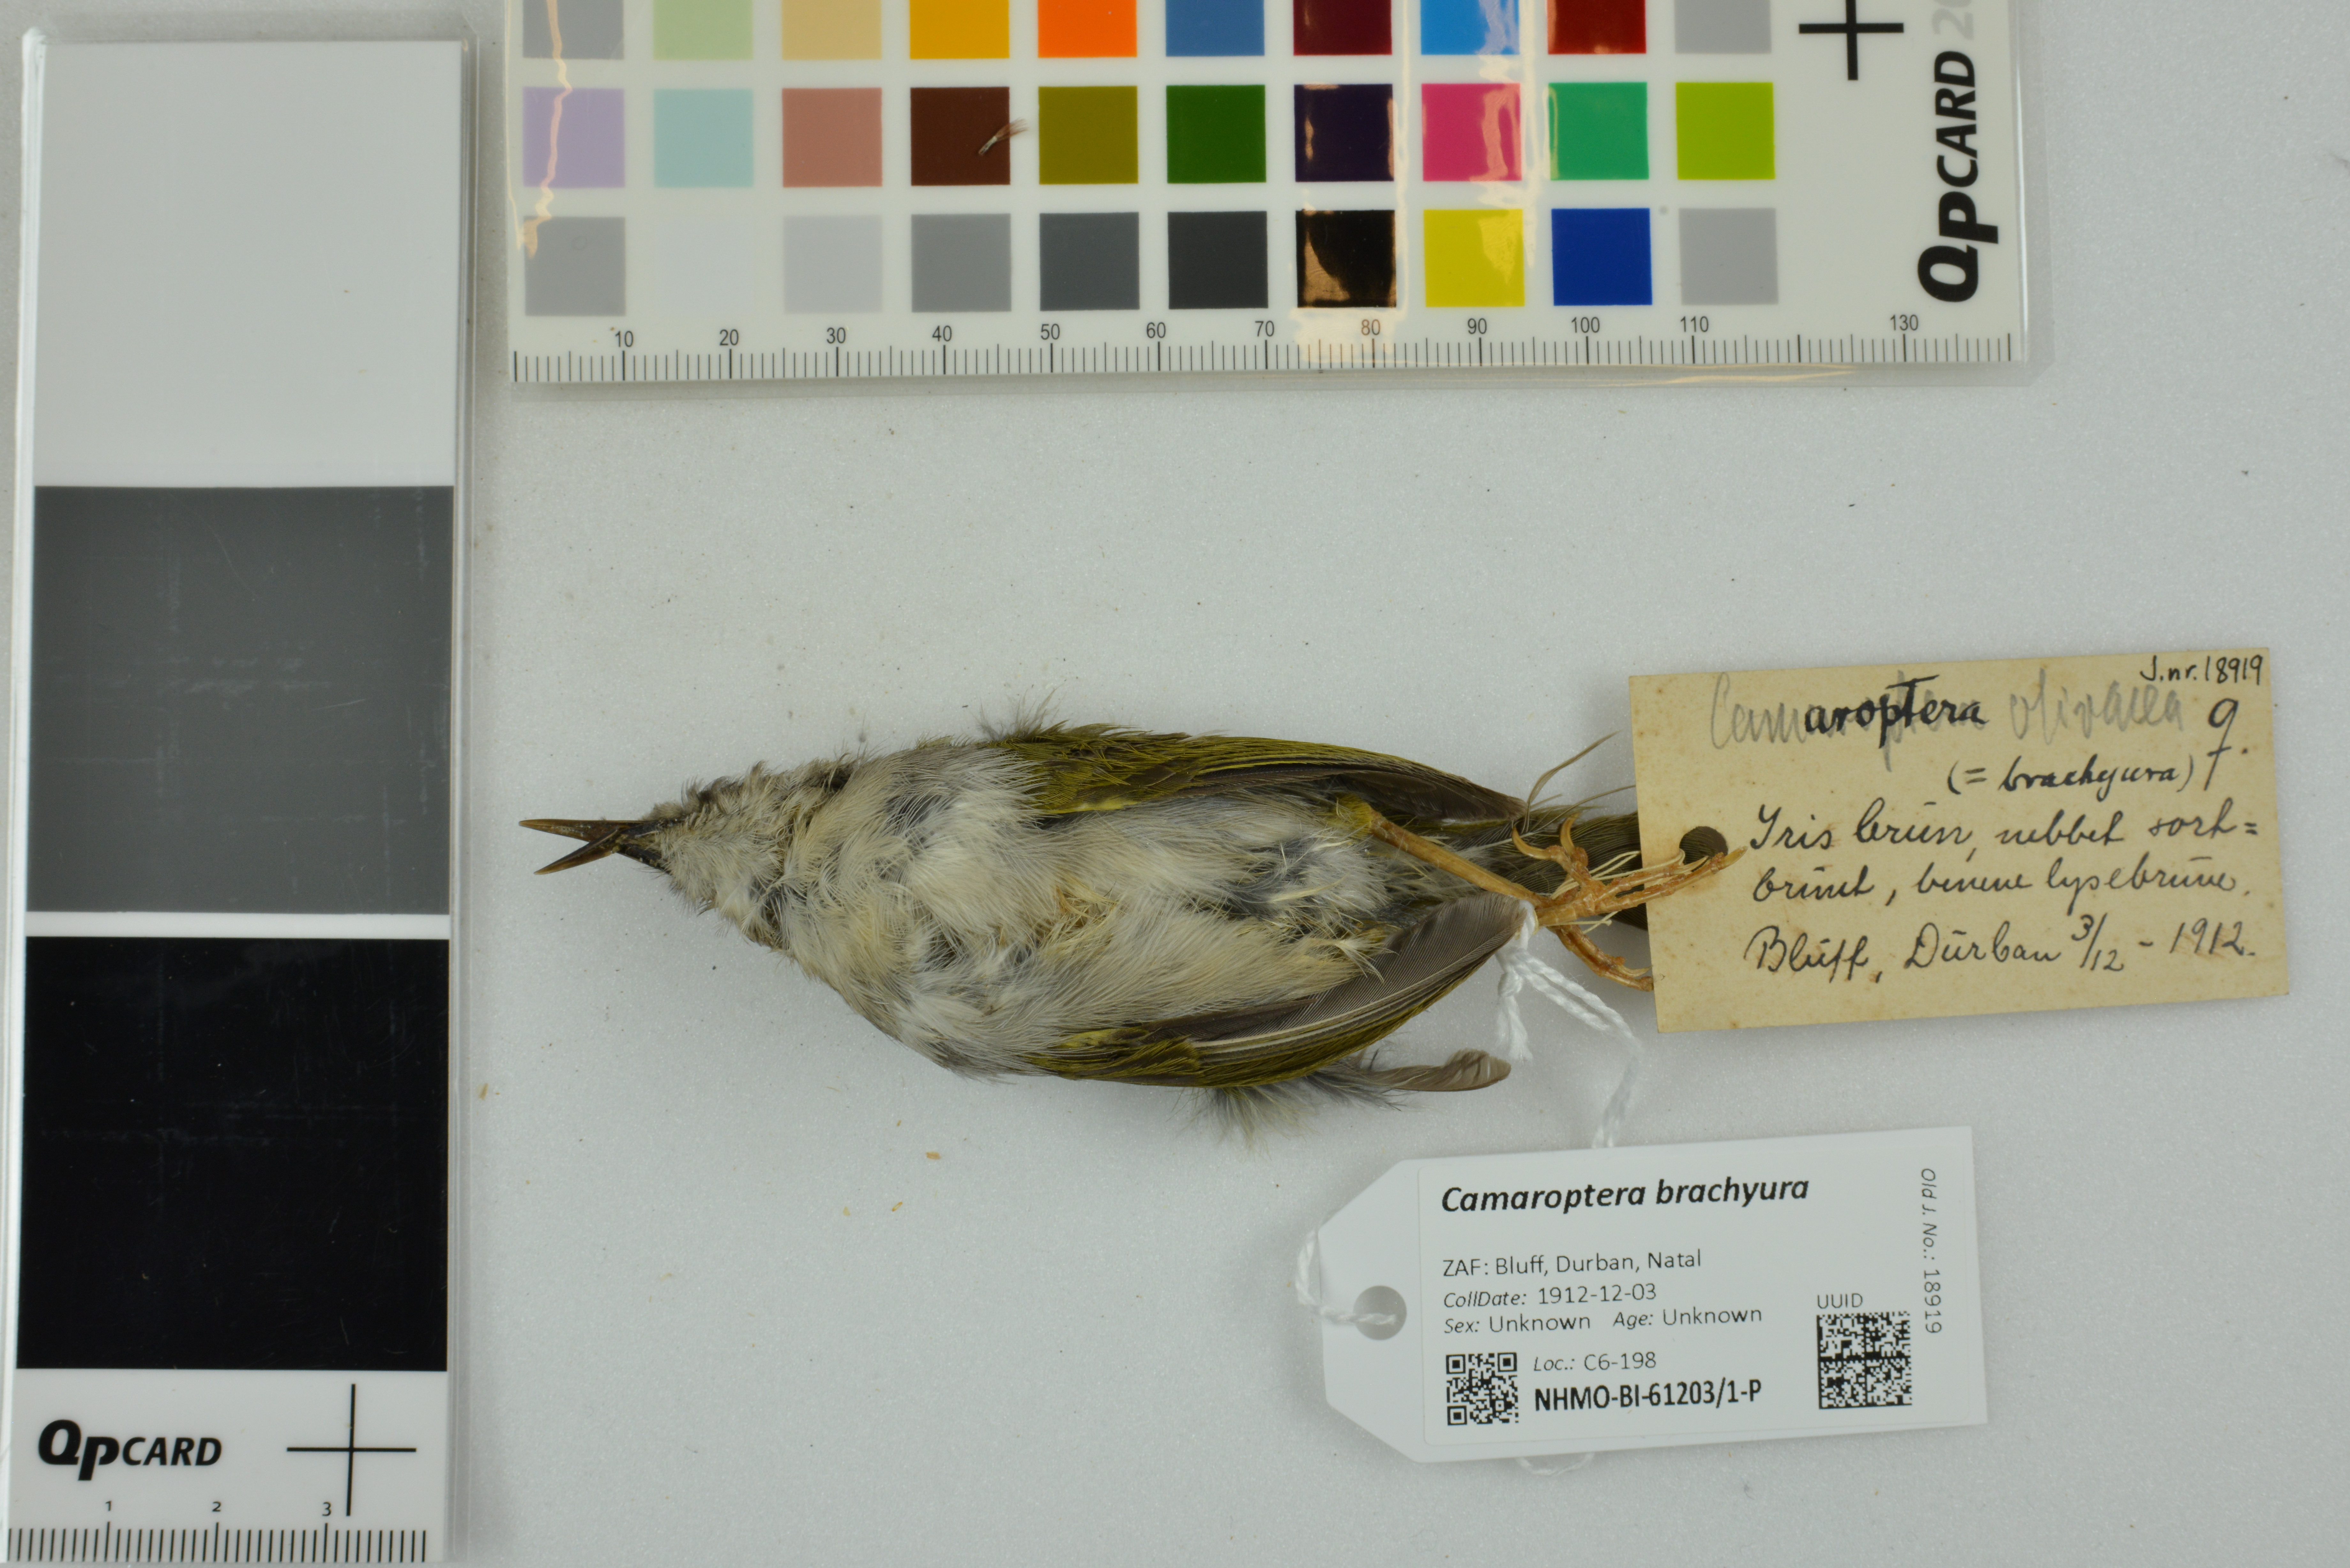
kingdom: Animalia
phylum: Chordata
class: Aves
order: Passeriformes
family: Cisticolidae
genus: Camaroptera
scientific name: Camaroptera brachyura
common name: Green-backed camaroptera
